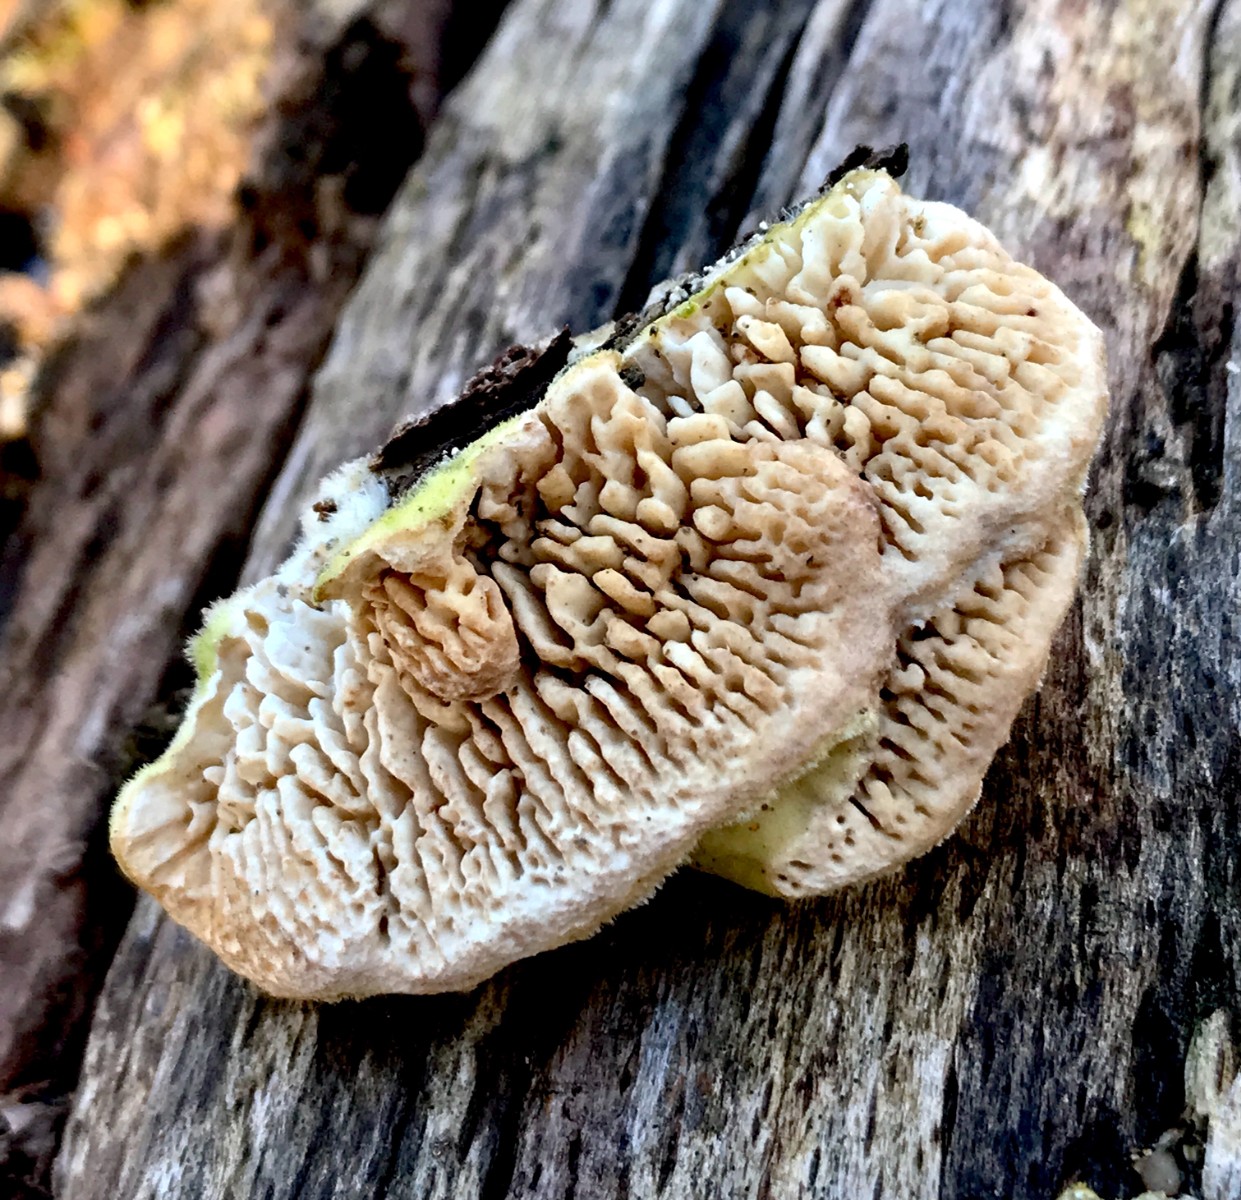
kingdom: Fungi
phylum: Basidiomycota
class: Agaricomycetes
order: Polyporales
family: Polyporaceae
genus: Lenzites
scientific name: Lenzites betulinus
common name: birke-læderporesvamp
